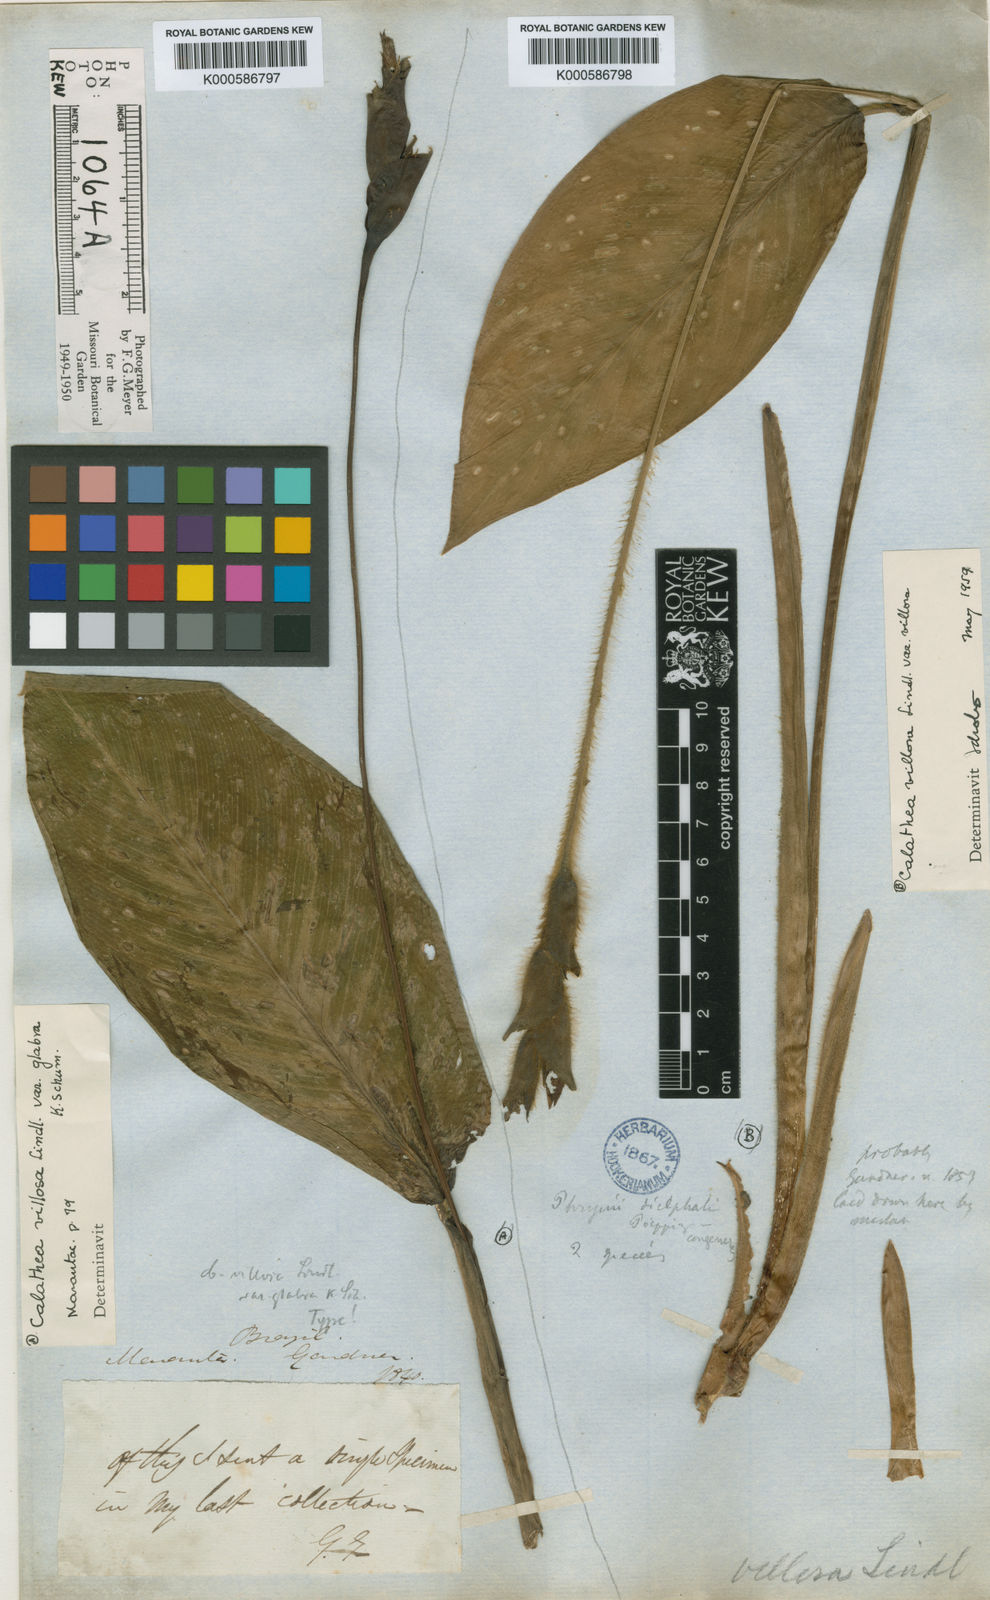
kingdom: Plantae
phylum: Tracheophyta
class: Liliopsida
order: Zingiberales
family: Marantaceae
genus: Goeppertia
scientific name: Goeppertia villosa
